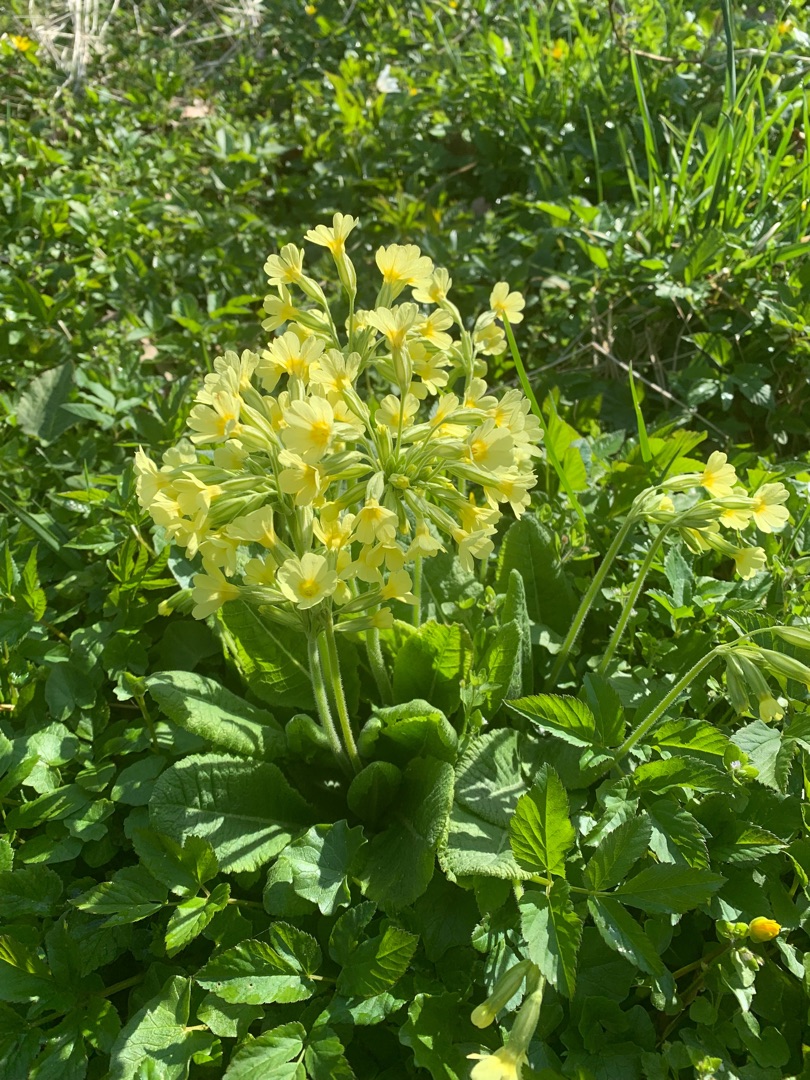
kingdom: Plantae
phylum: Tracheophyta
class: Magnoliopsida
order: Ericales
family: Primulaceae
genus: Primula
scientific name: Primula elatior
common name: Fladkravet kodriver
